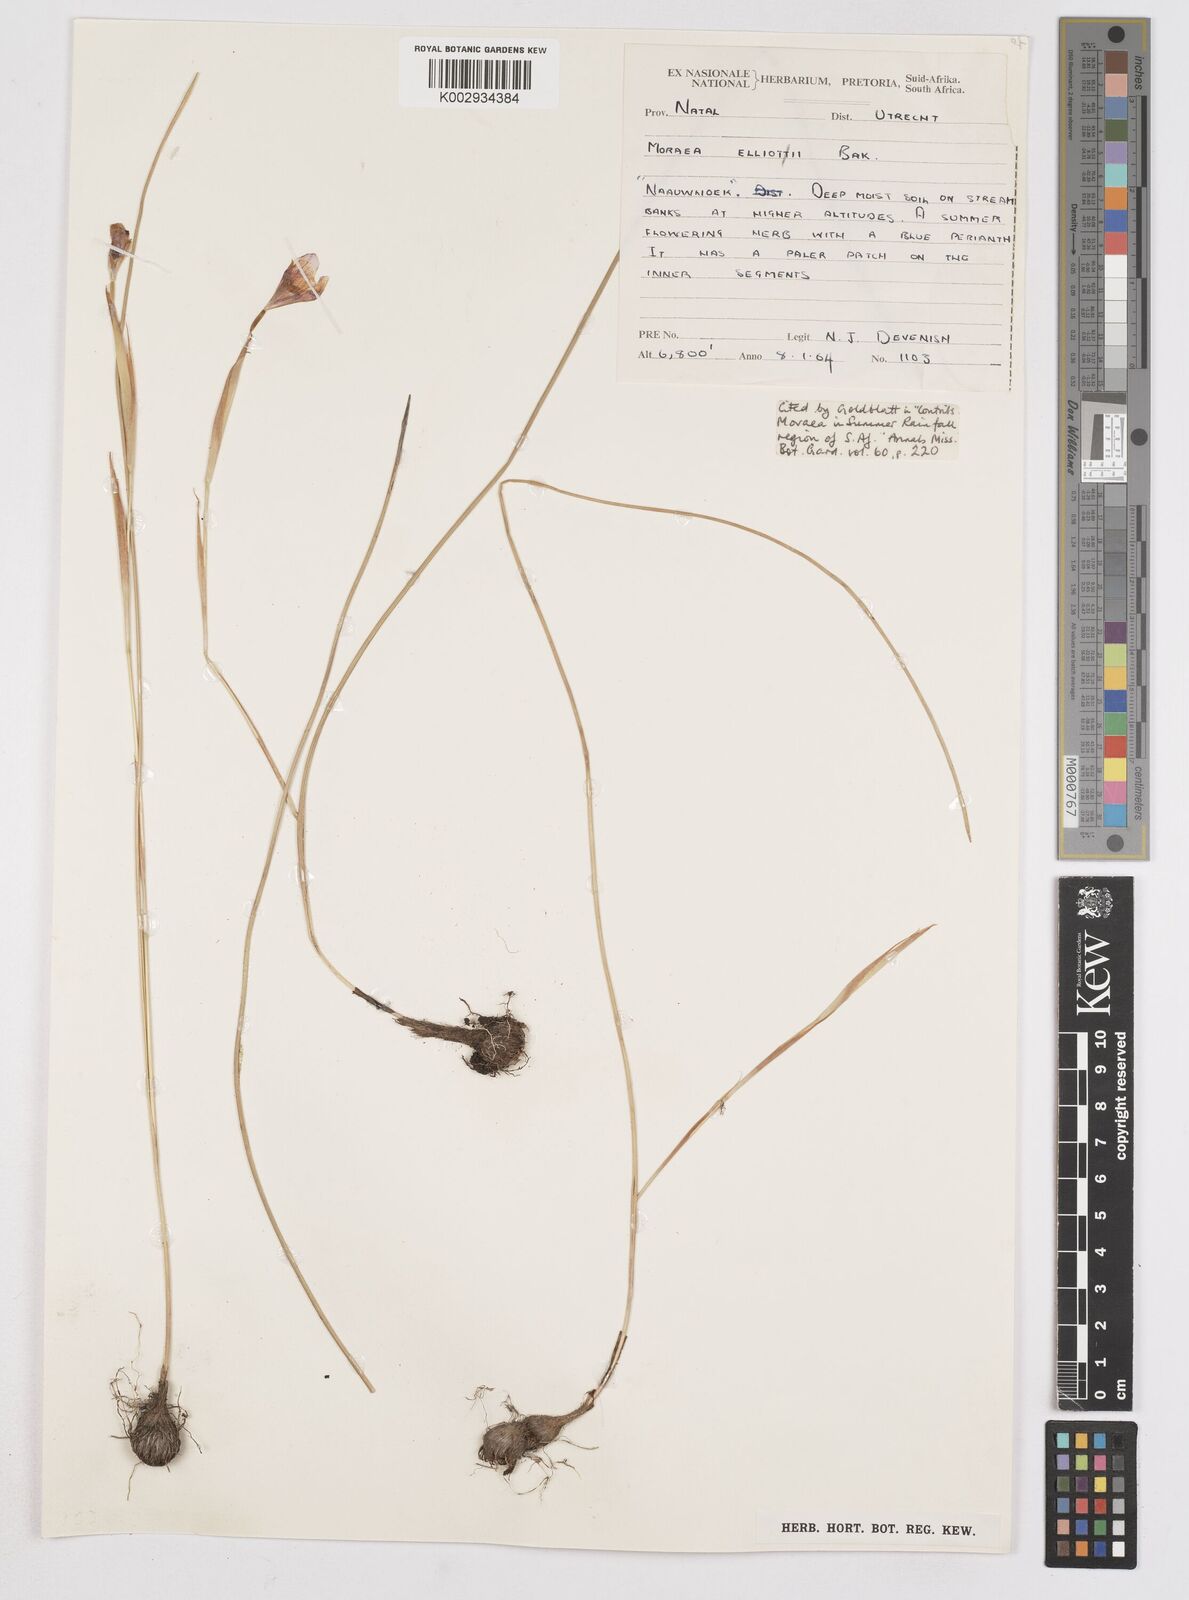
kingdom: Plantae
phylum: Tracheophyta
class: Liliopsida
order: Asparagales
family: Iridaceae
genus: Moraea
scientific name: Moraea elliotii
